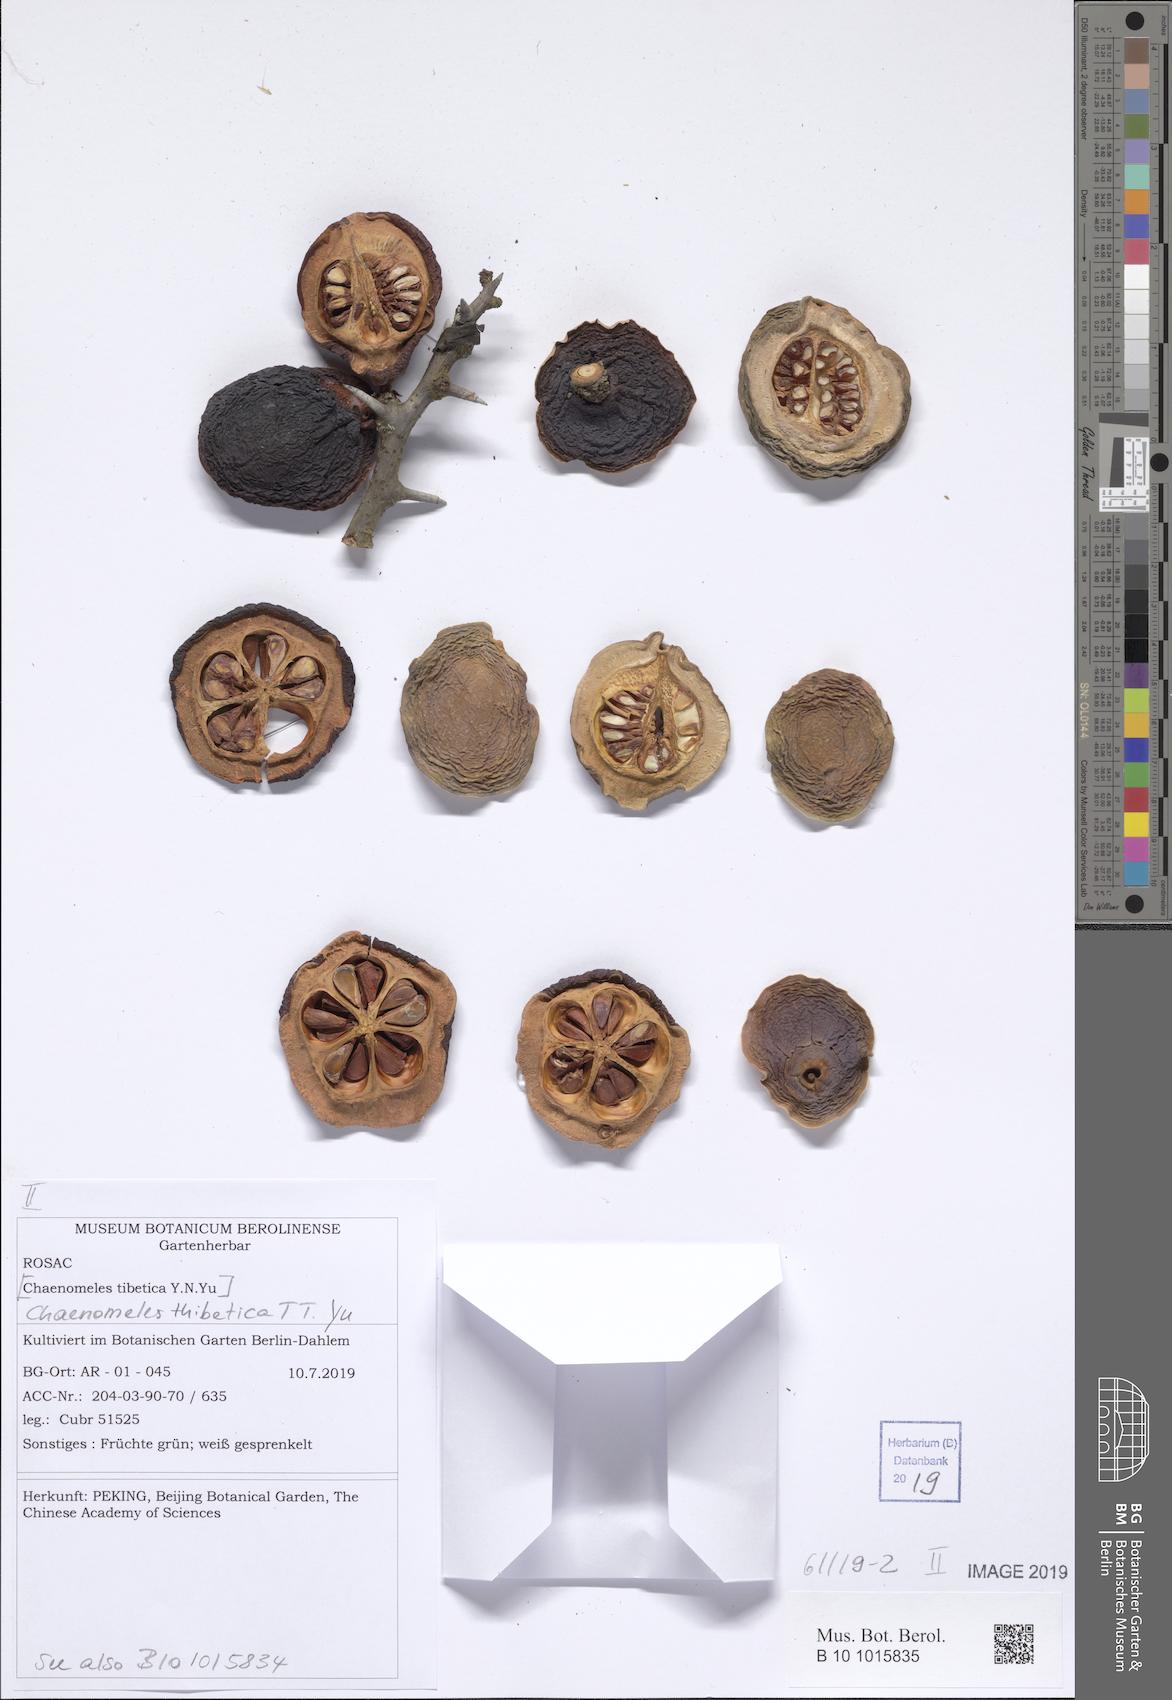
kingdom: Plantae
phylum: Tracheophyta
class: Magnoliopsida
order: Rosales
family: Rosaceae
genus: Chaenomeles
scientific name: Chaenomeles thibetica
